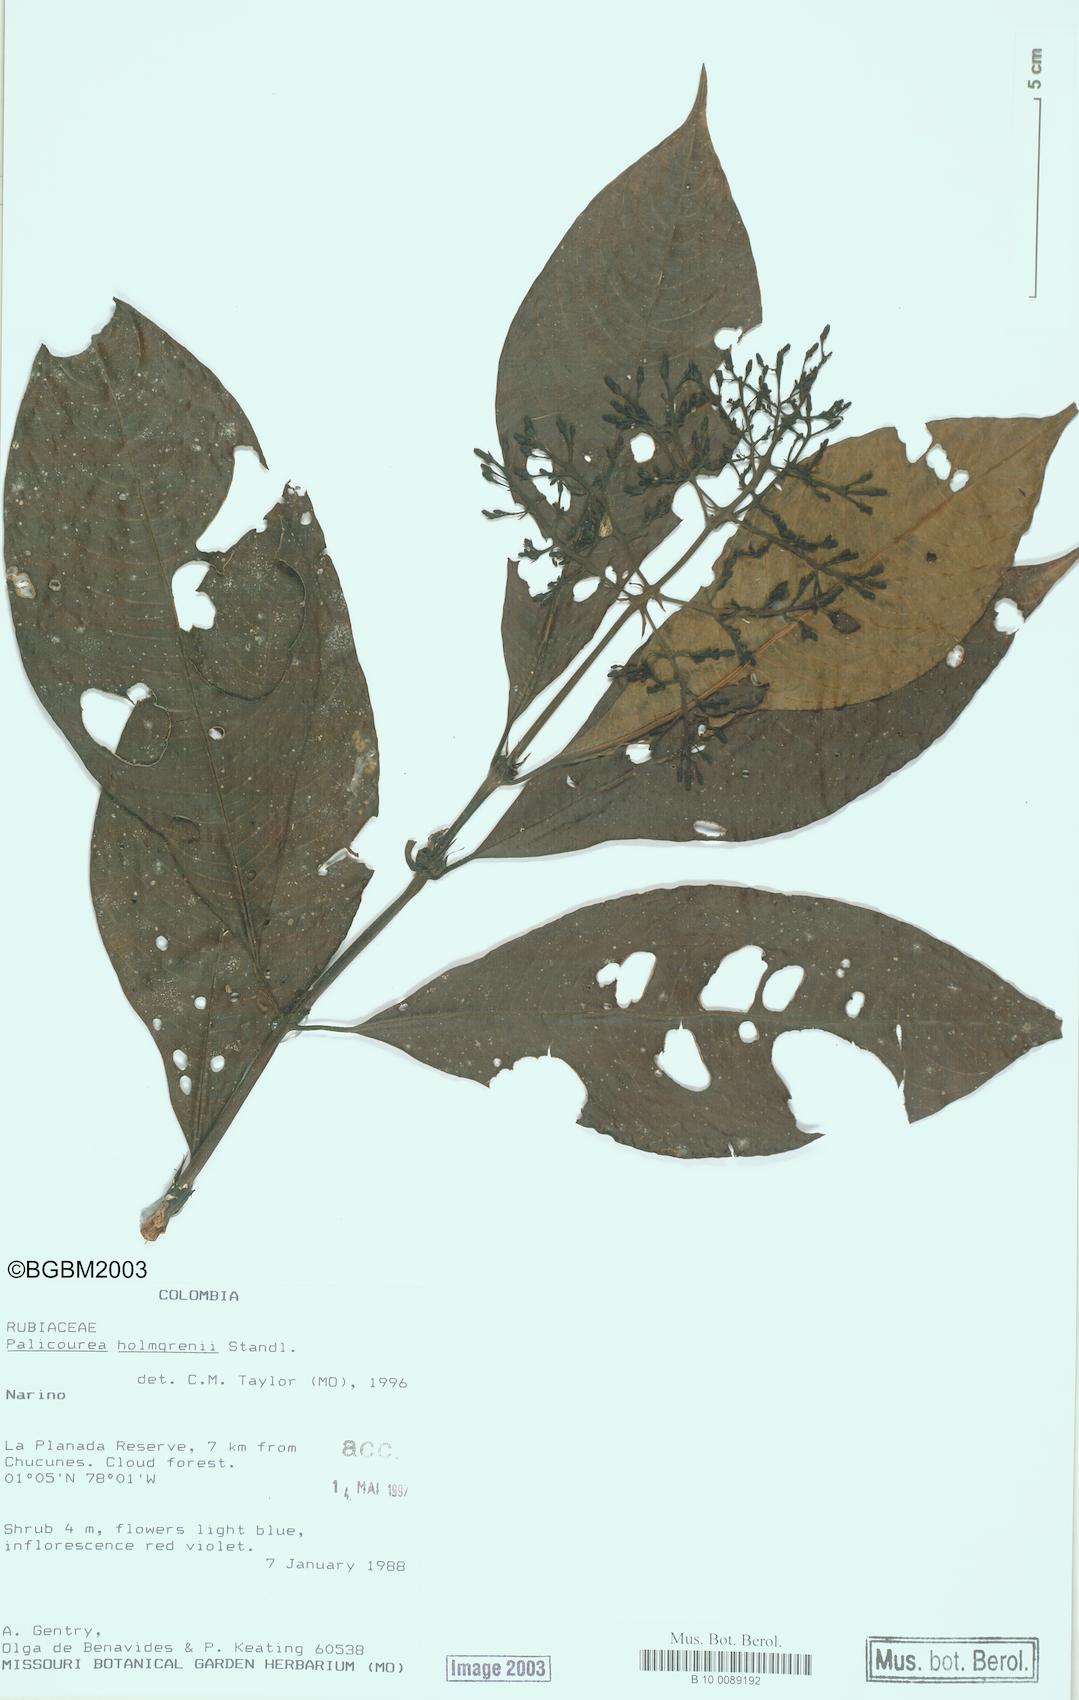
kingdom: Plantae
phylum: Tracheophyta
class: Magnoliopsida
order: Gentianales
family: Rubiaceae
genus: Palicourea
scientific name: Palicourea holmgrenii
